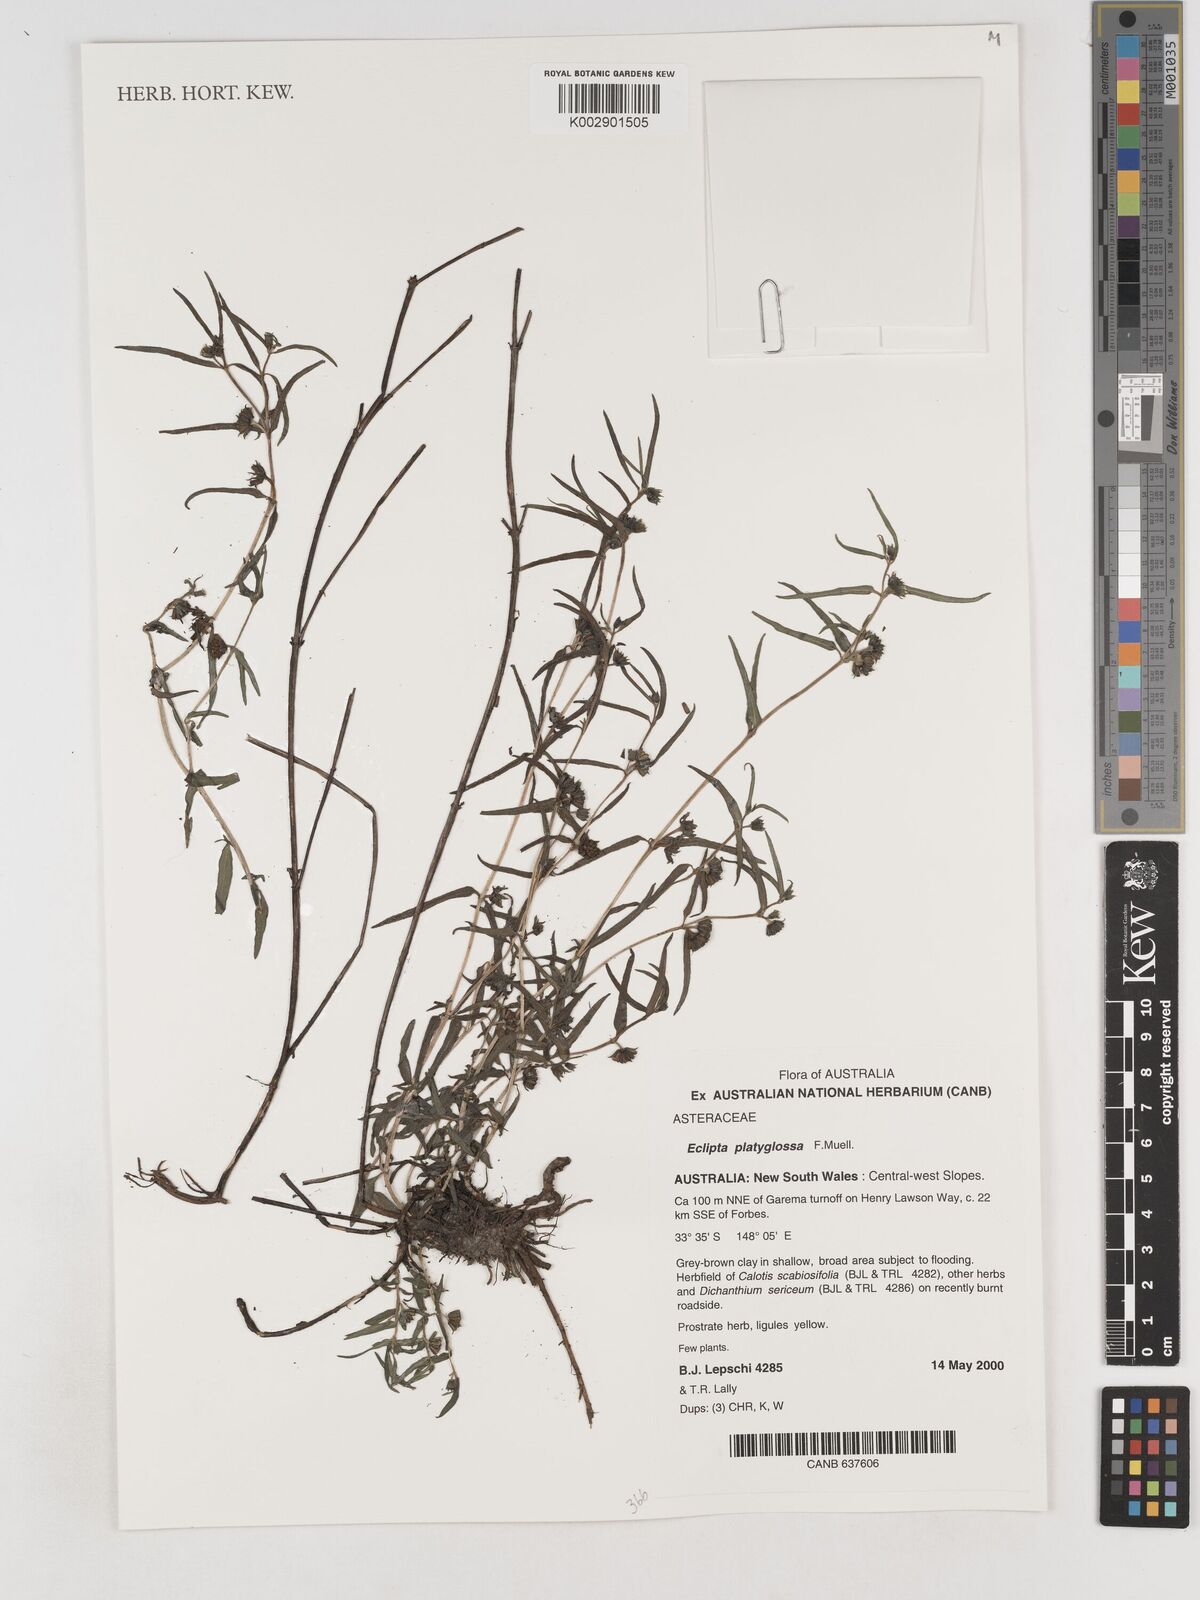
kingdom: Plantae
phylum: Tracheophyta
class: Magnoliopsida
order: Asterales
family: Asteraceae
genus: Eclipta
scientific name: Eclipta platyglossa
